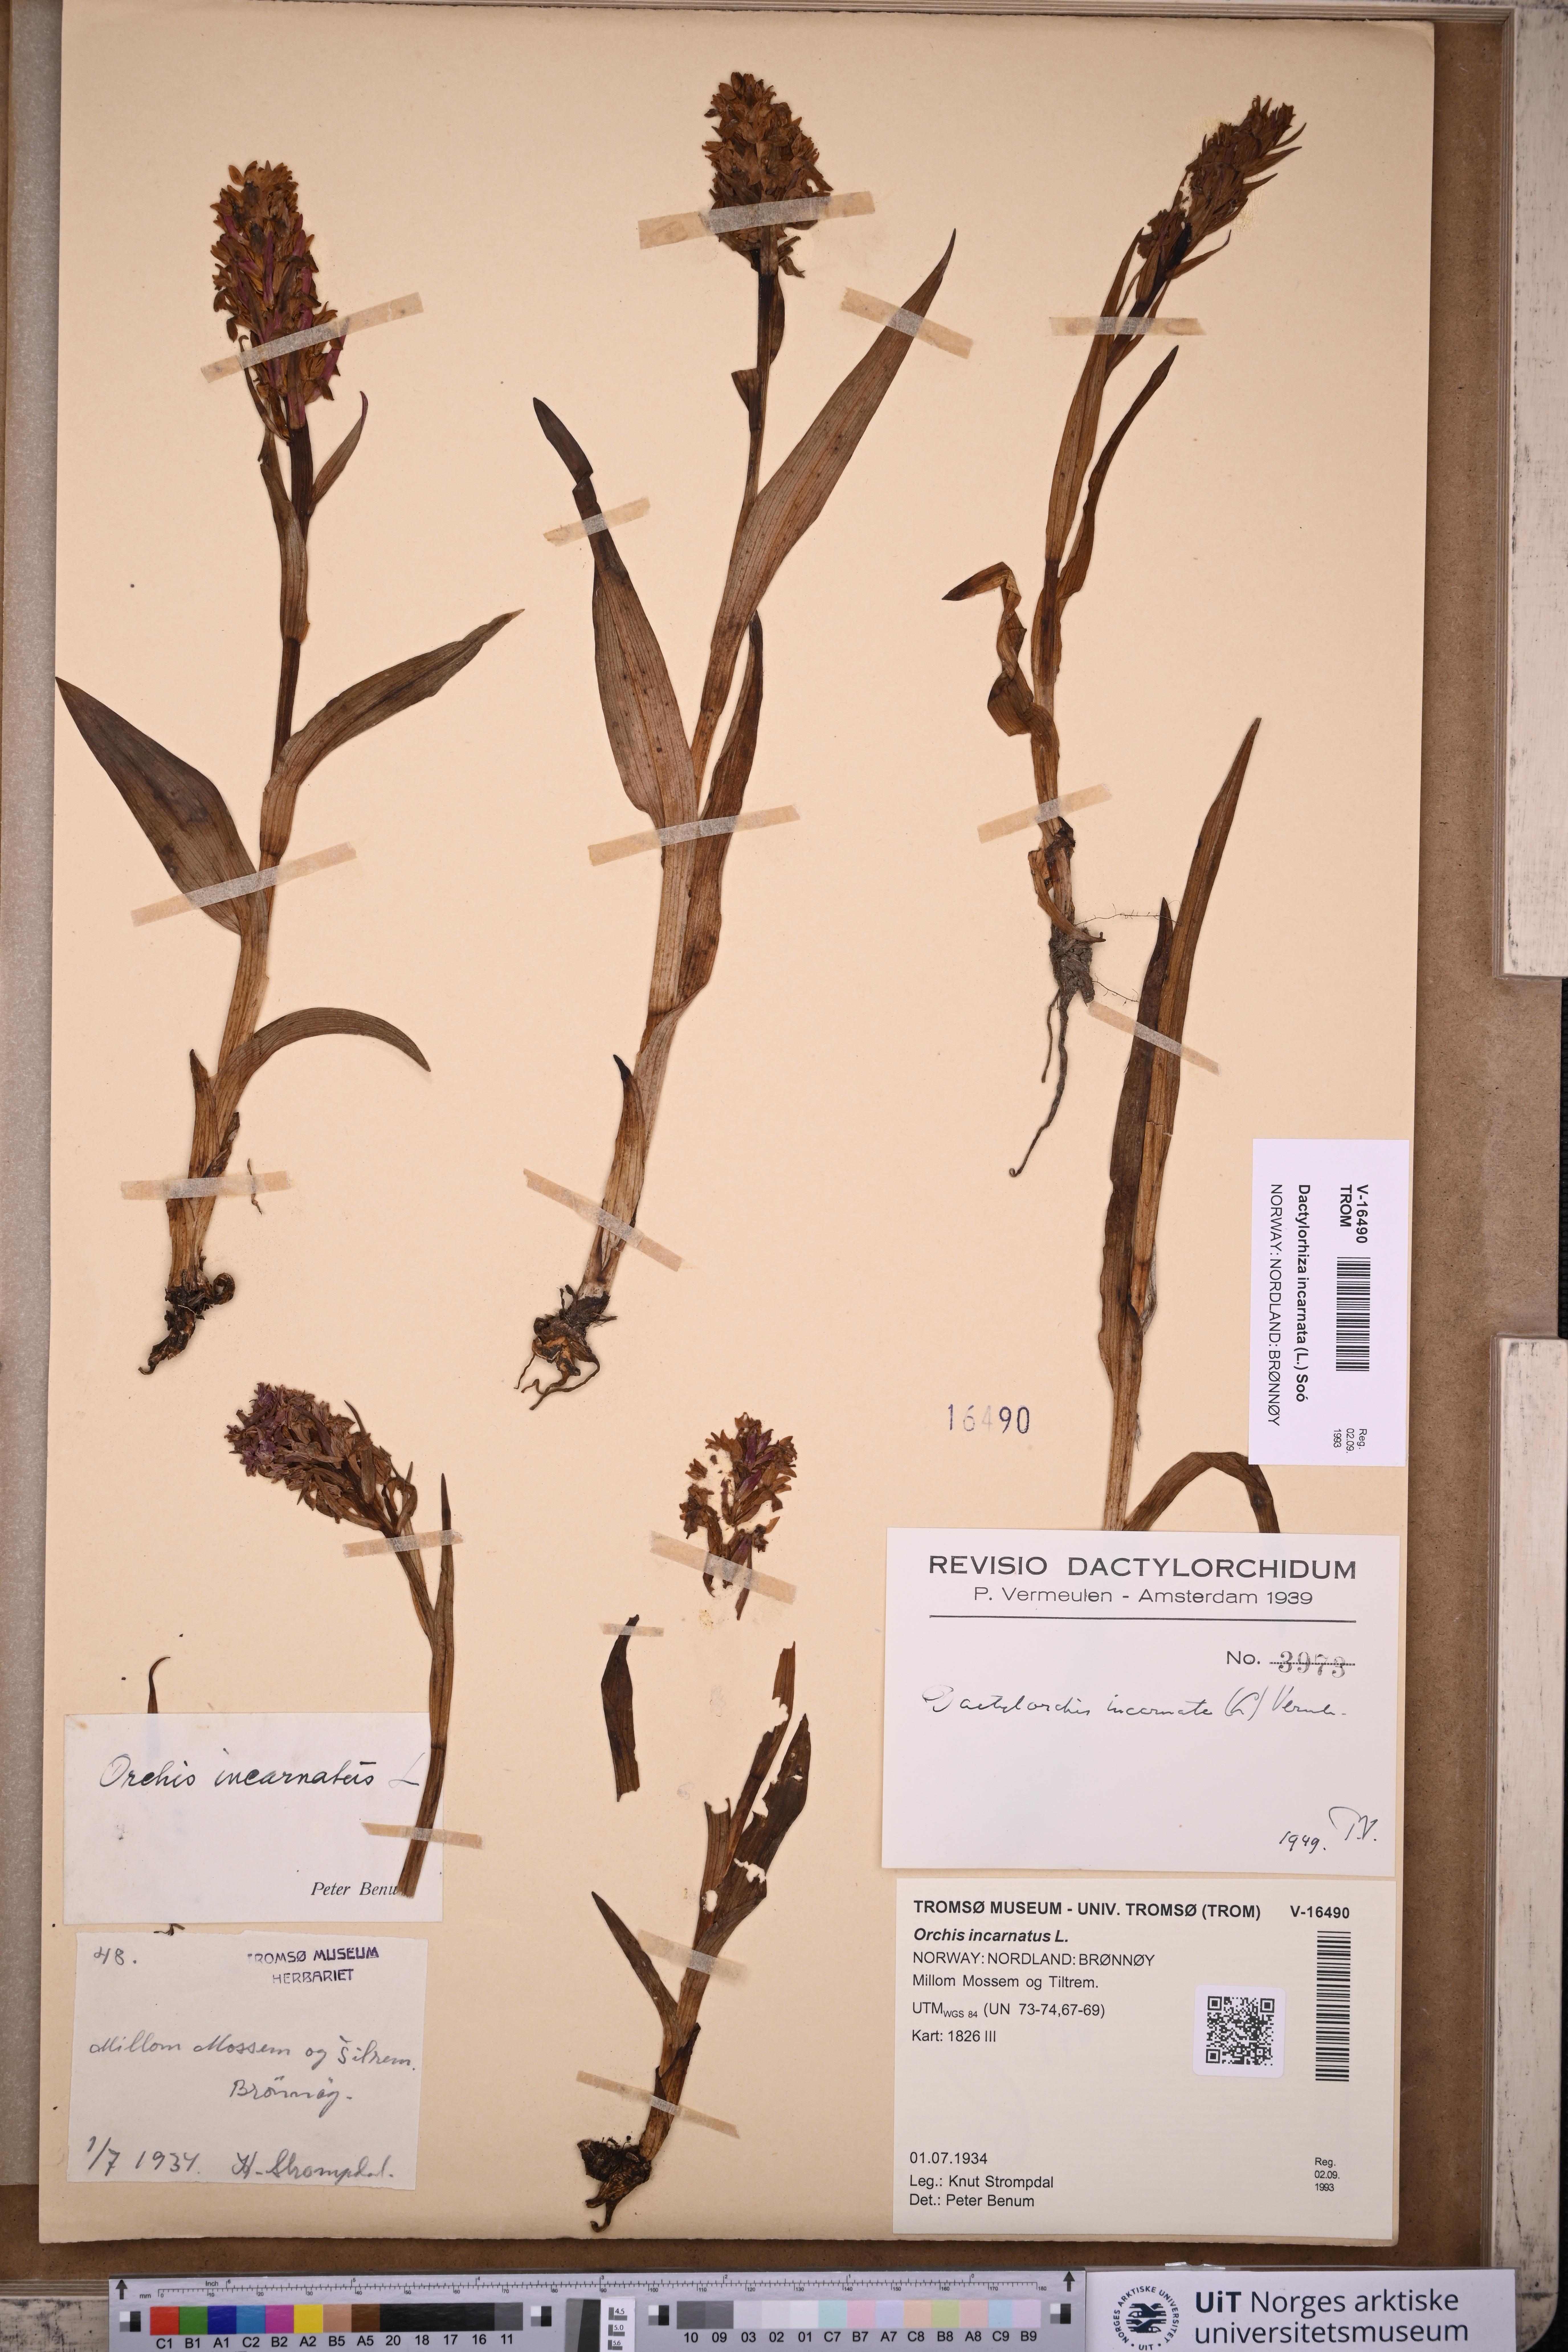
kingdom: Plantae
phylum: Tracheophyta
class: Liliopsida
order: Asparagales
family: Orchidaceae
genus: Dactylorhiza
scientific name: Dactylorhiza incarnata
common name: Early marsh-orchid
